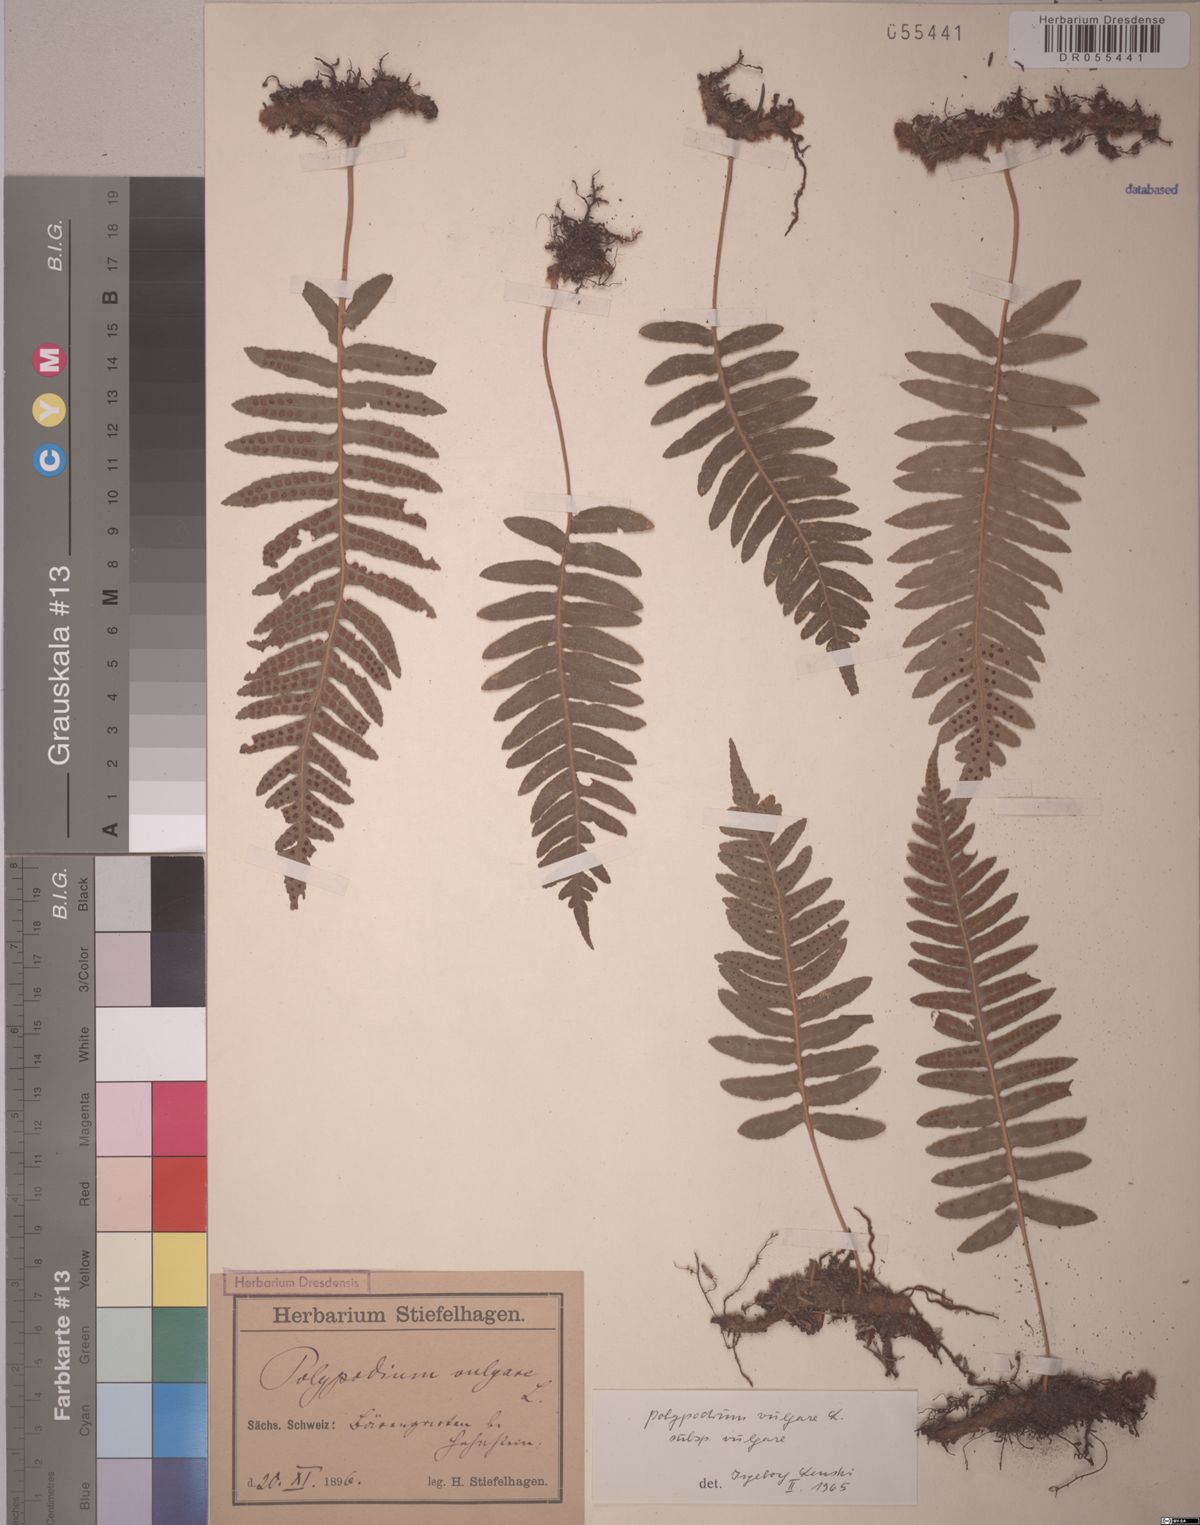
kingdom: Plantae
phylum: Tracheophyta
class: Polypodiopsida
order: Polypodiales
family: Polypodiaceae
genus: Polypodium
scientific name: Polypodium vulgare
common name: Common polypody
